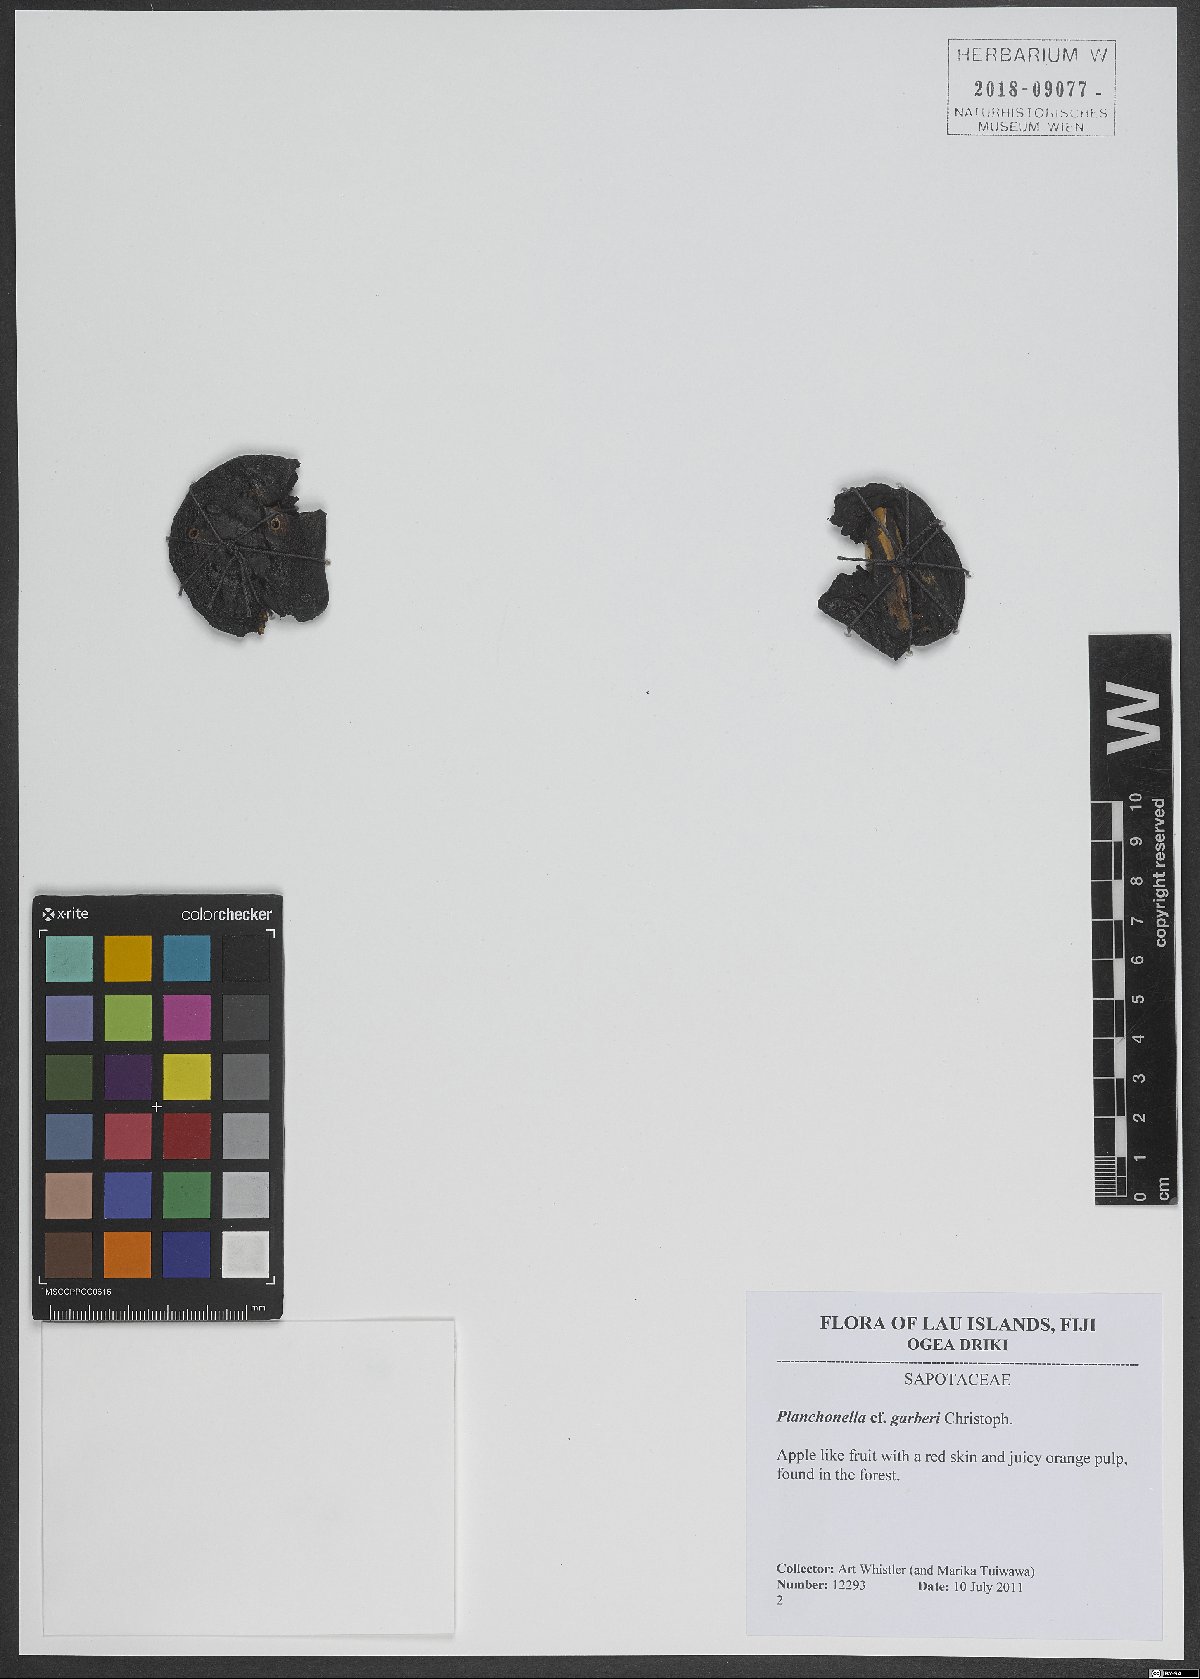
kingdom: Plantae
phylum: Tracheophyta
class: Magnoliopsida
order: Ericales
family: Sapotaceae
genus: Planchonella
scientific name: Planchonella garberi
